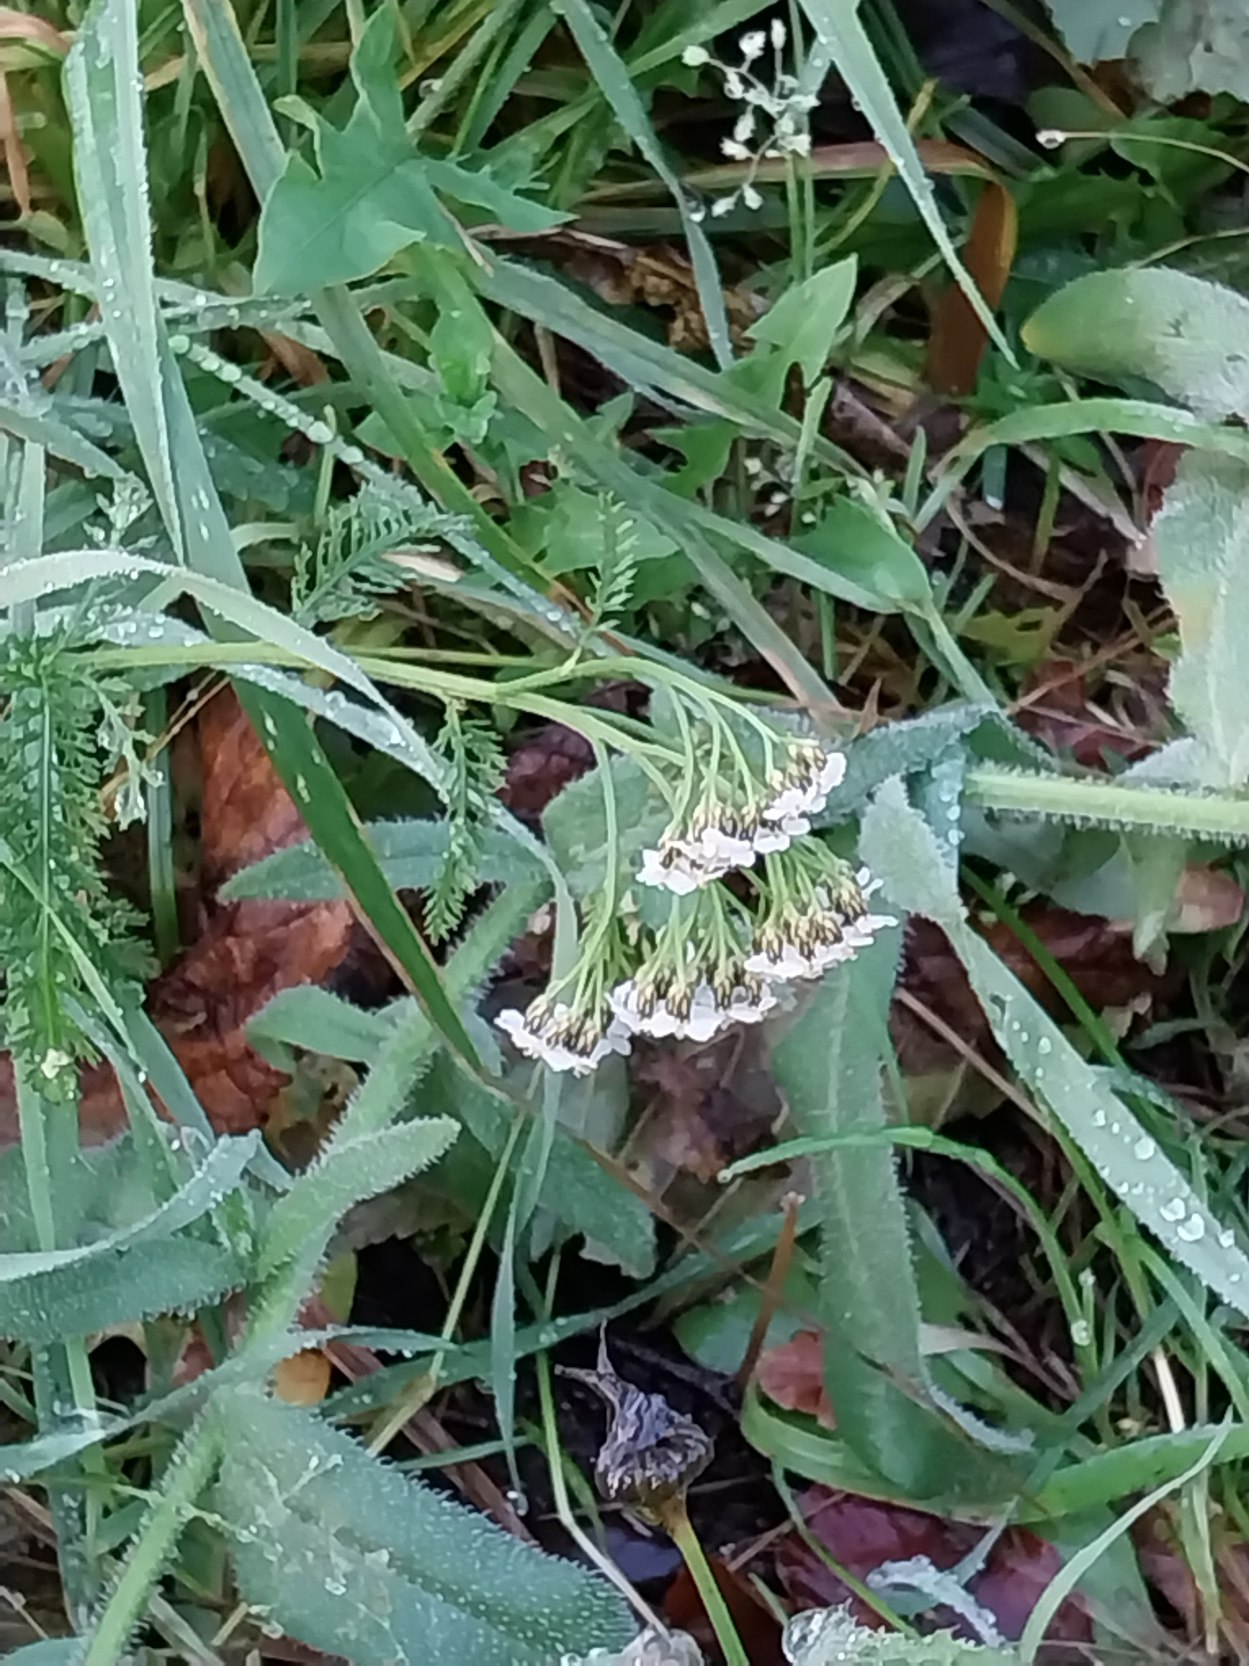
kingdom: Plantae
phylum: Tracheophyta
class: Magnoliopsida
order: Asterales
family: Asteraceae
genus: Achillea
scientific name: Achillea millefolium
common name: Almindelig røllike
